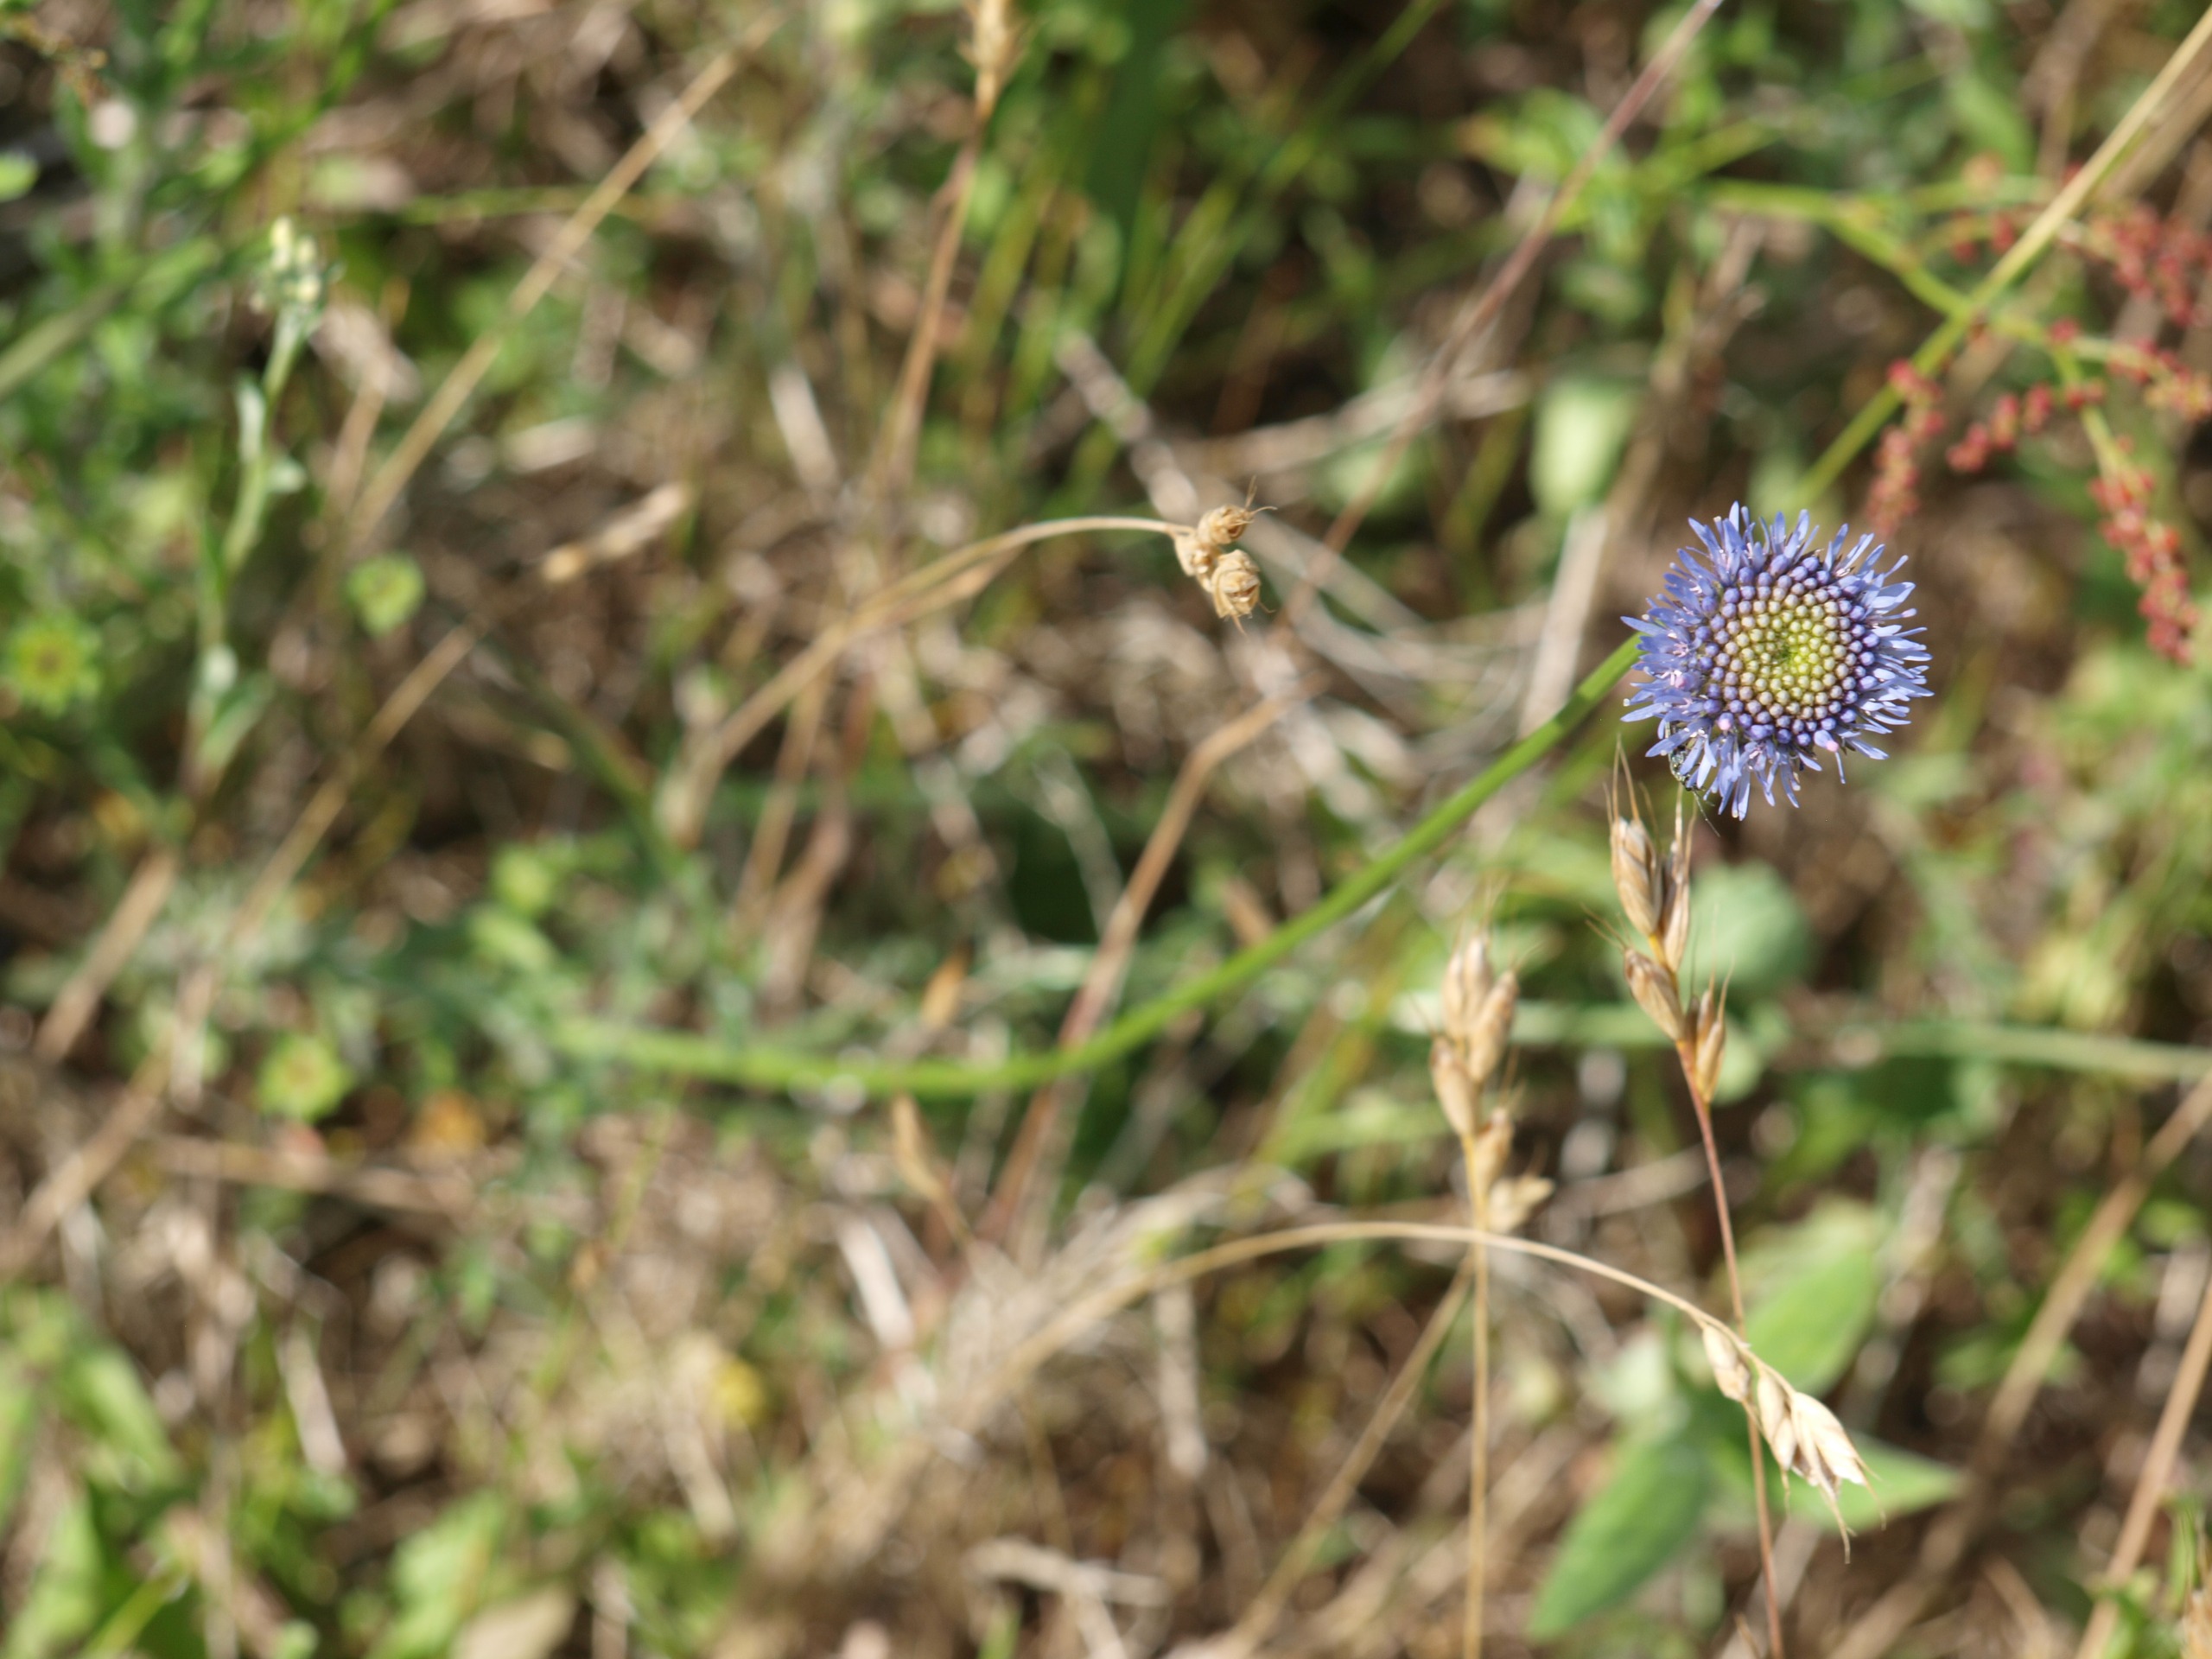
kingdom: Plantae
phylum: Tracheophyta
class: Magnoliopsida
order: Asterales
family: Campanulaceae
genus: Jasione
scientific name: Jasione montana
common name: Blåmunke
